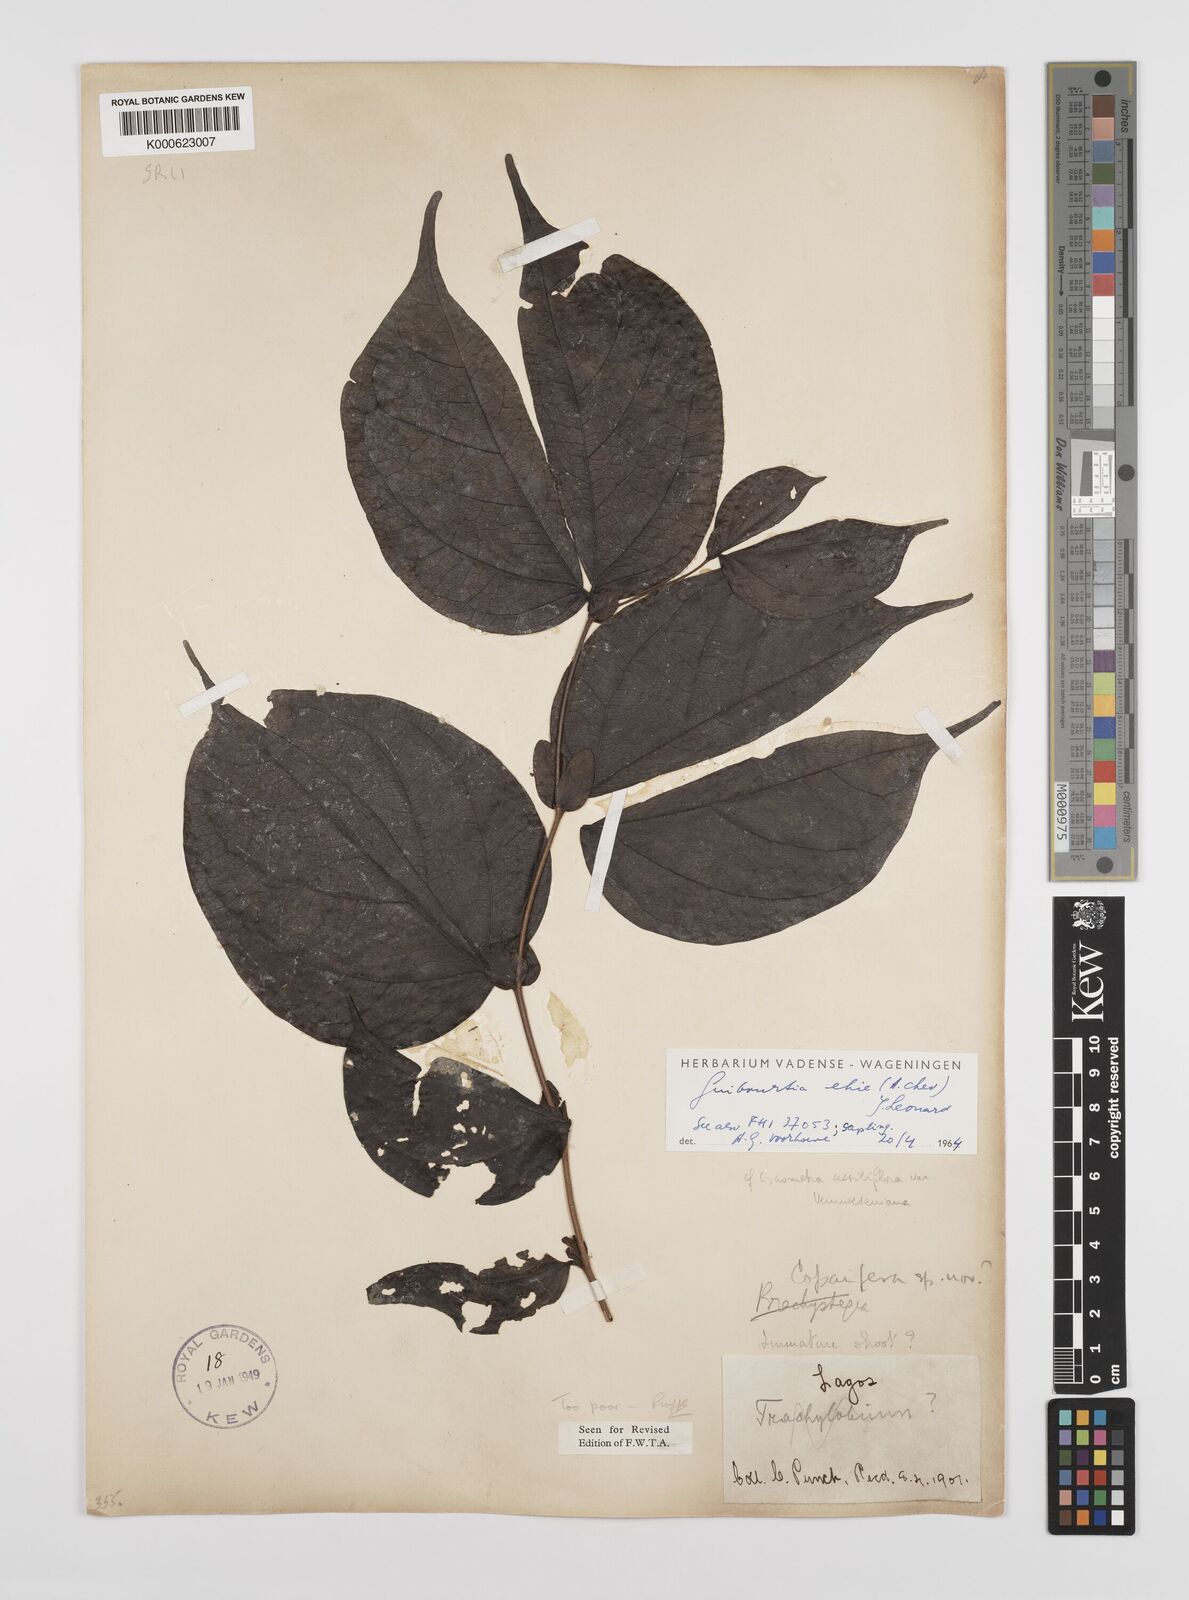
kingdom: Plantae
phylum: Tracheophyta
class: Magnoliopsida
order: Fabales
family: Fabaceae
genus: Guibourtia
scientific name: Guibourtia ehie
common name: Black hyedua
